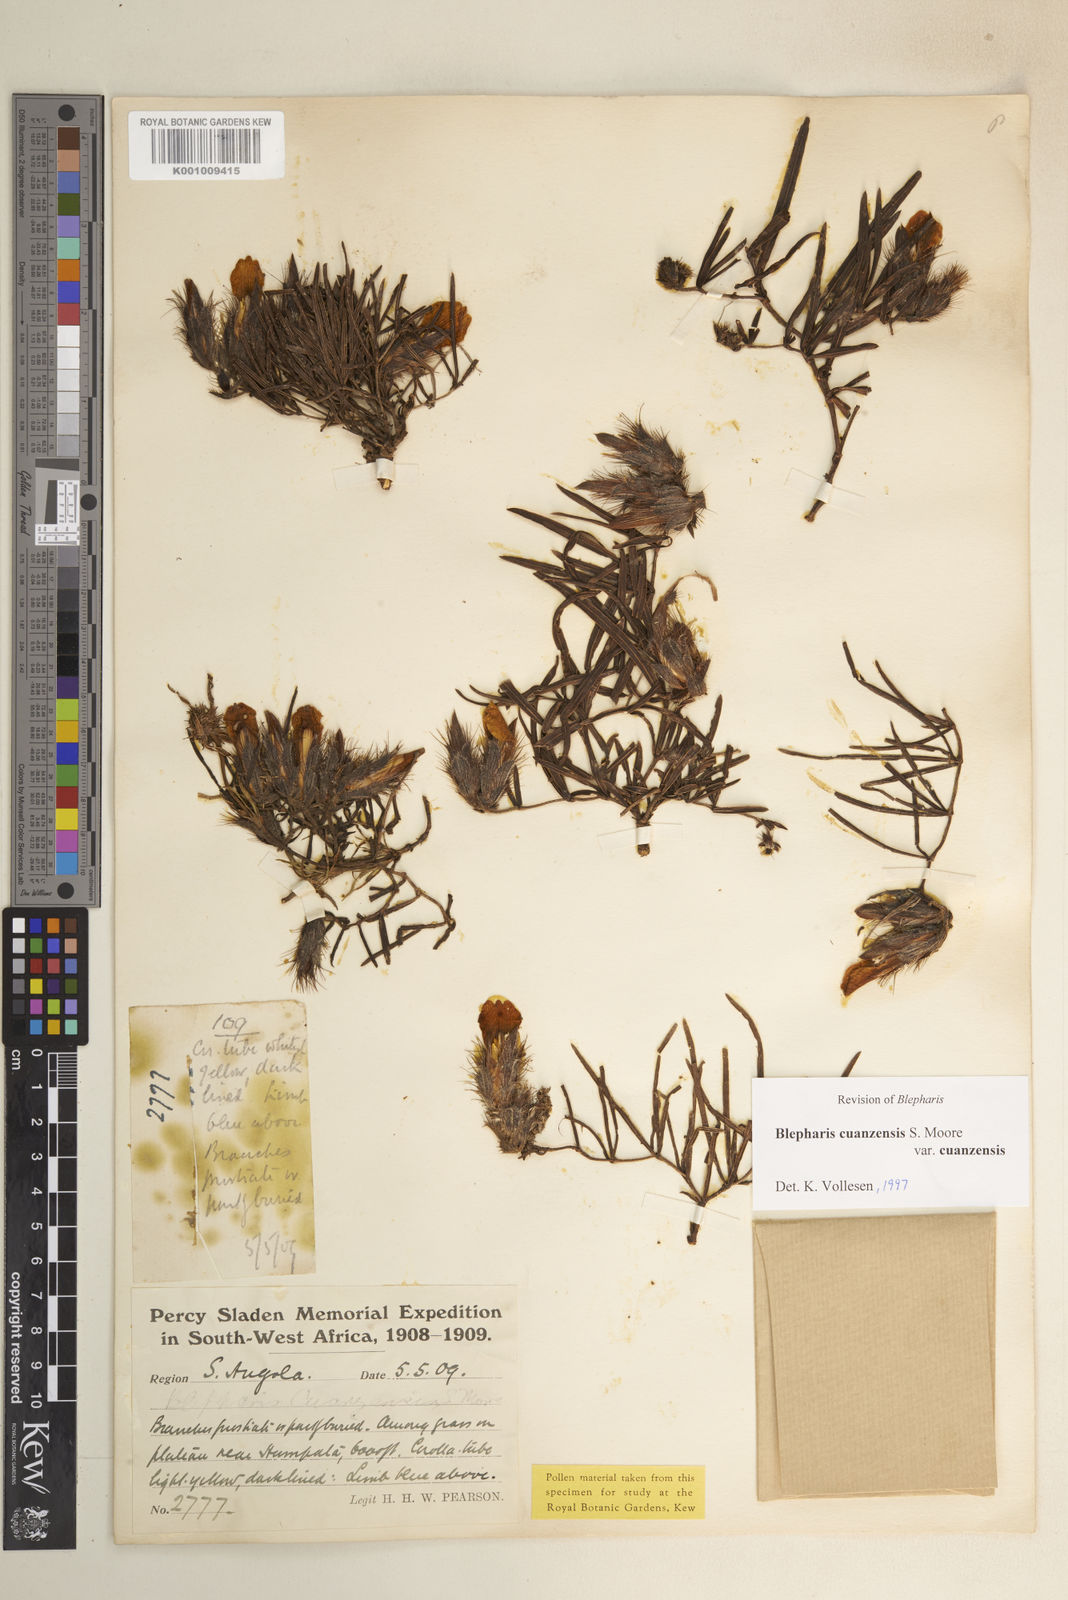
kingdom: Plantae
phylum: Tracheophyta
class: Magnoliopsida
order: Lamiales
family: Acanthaceae
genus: Blepharis
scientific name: Blepharis cuanzensis
